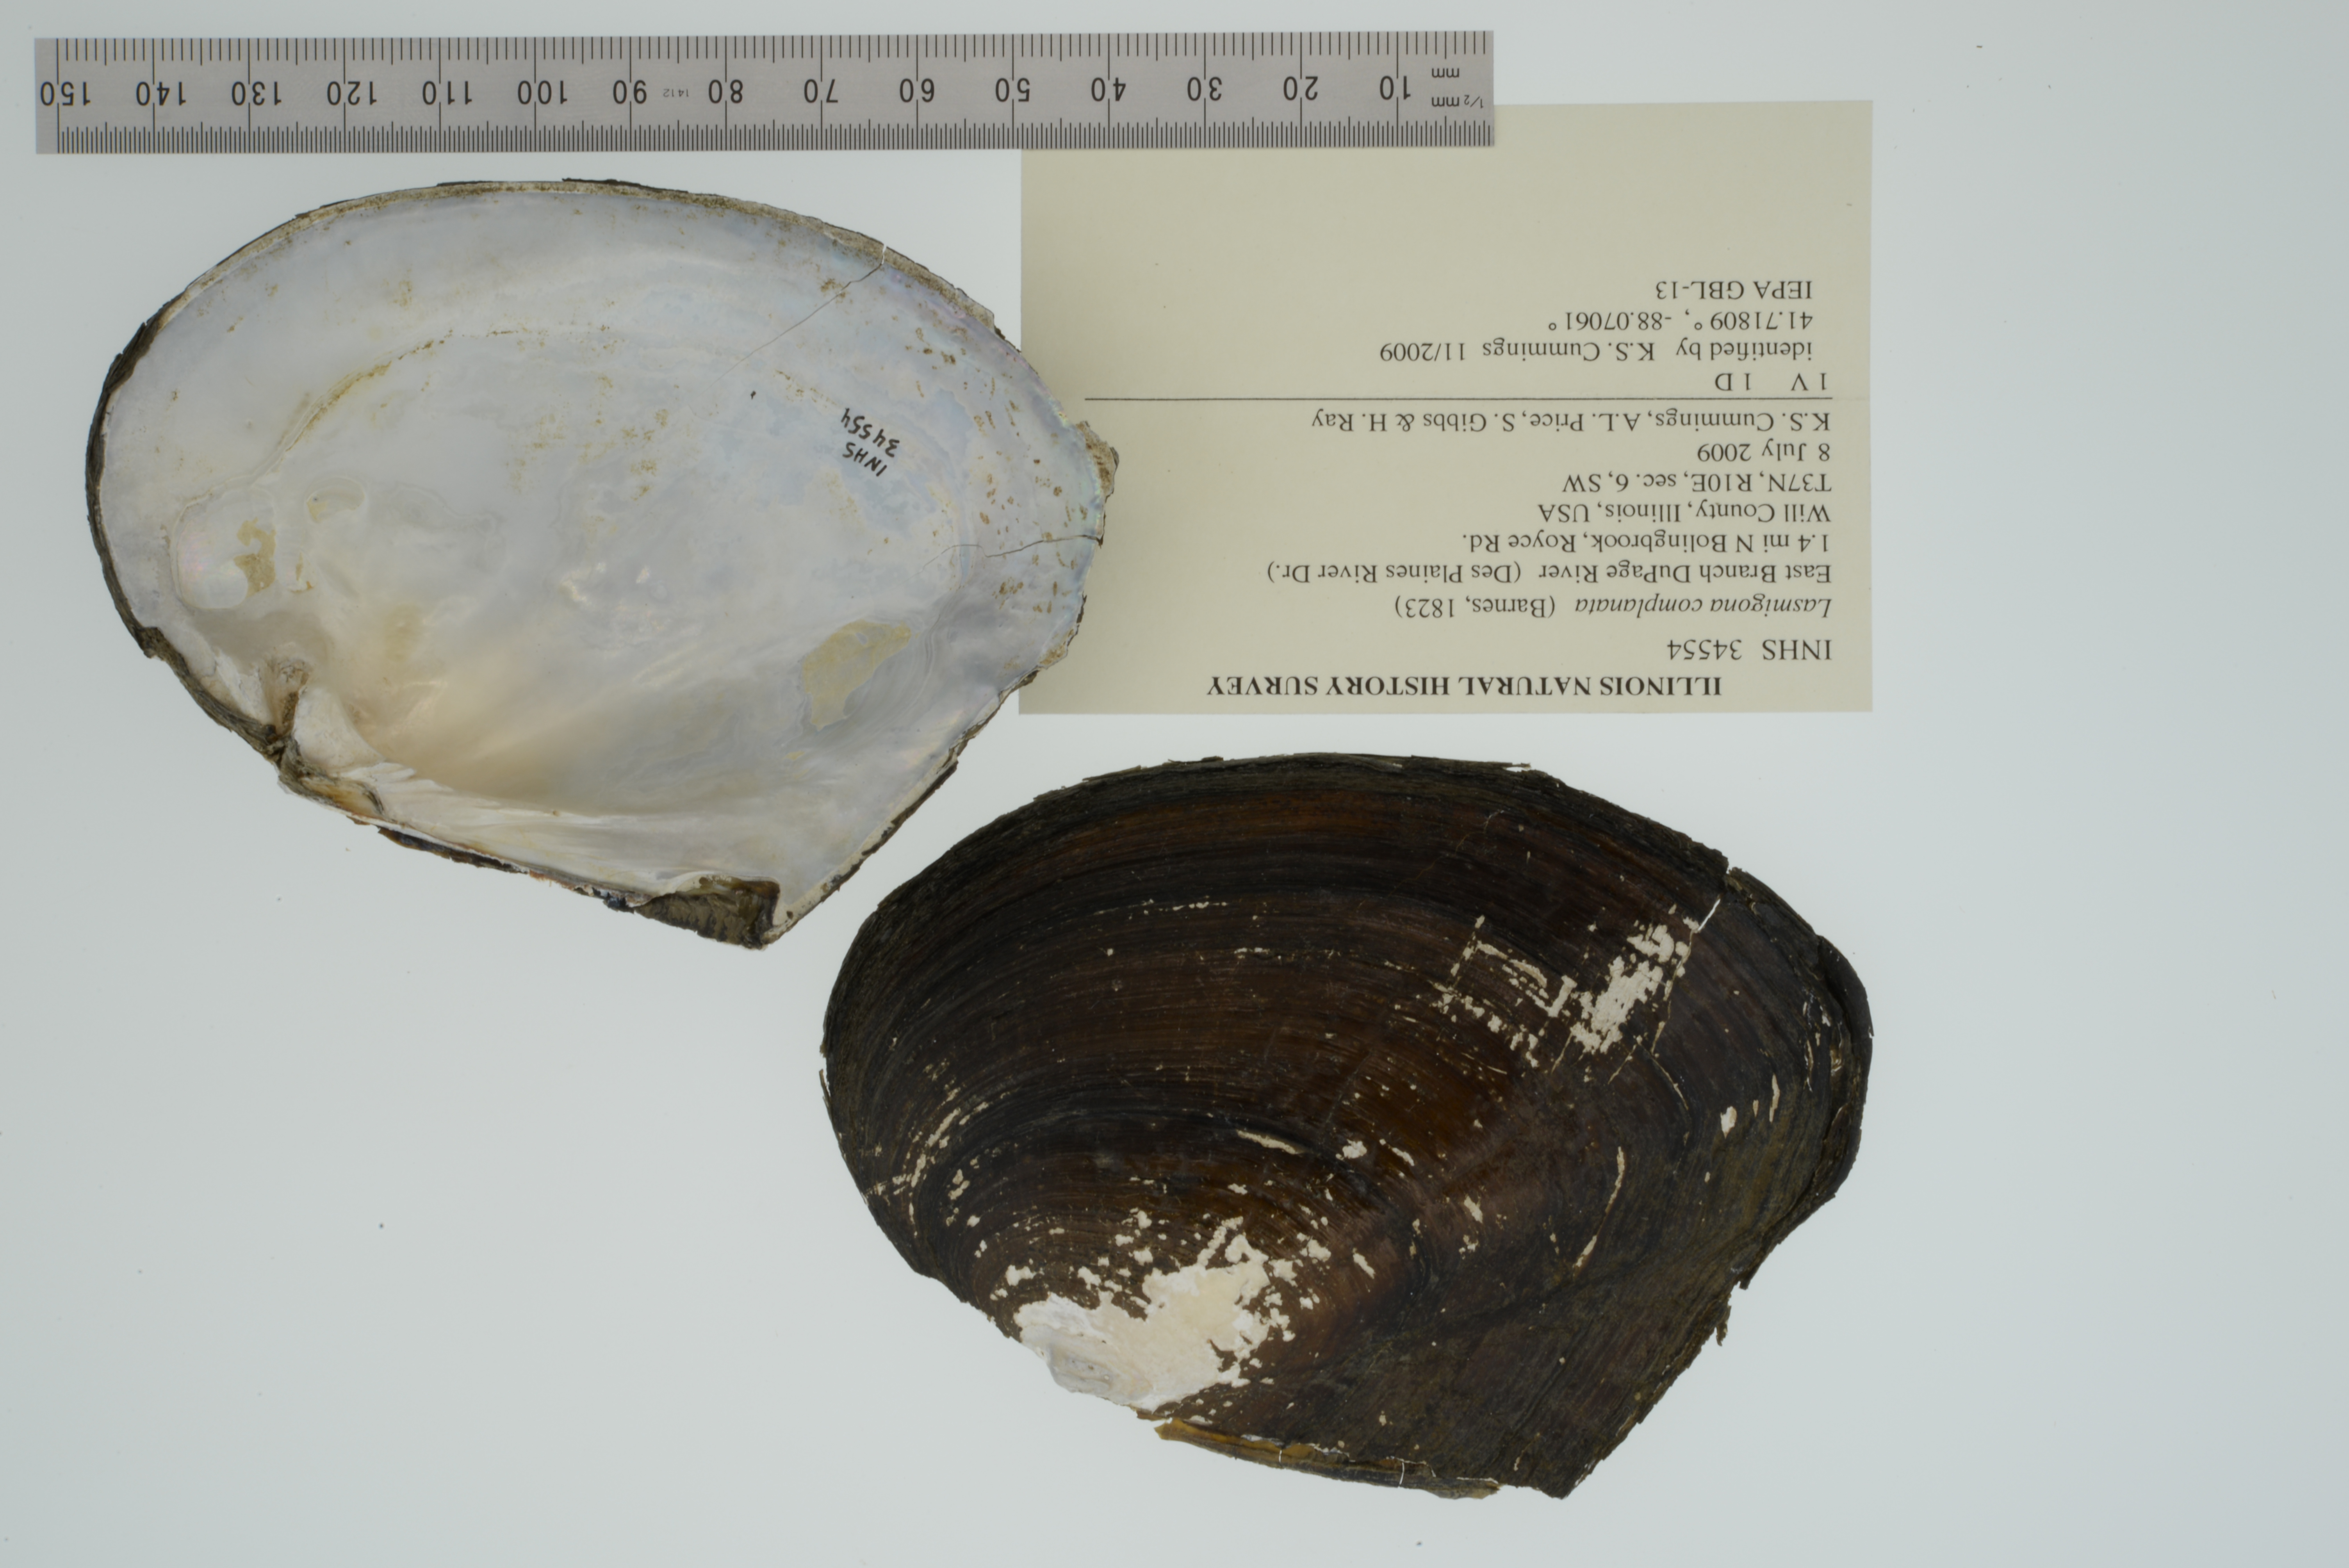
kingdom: Animalia
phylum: Mollusca
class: Bivalvia
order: Unionida
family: Unionidae
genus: Lasmigona
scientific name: Lasmigona complanata
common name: White heelsplitter
